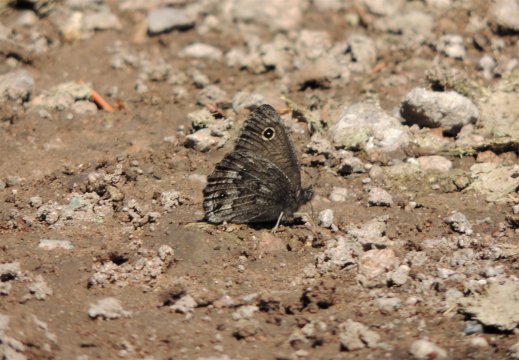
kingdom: Animalia
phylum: Arthropoda
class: Insecta
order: Lepidoptera
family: Nymphalidae
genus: Cercyonis
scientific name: Cercyonis oetus
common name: Small Wood-Nymph
